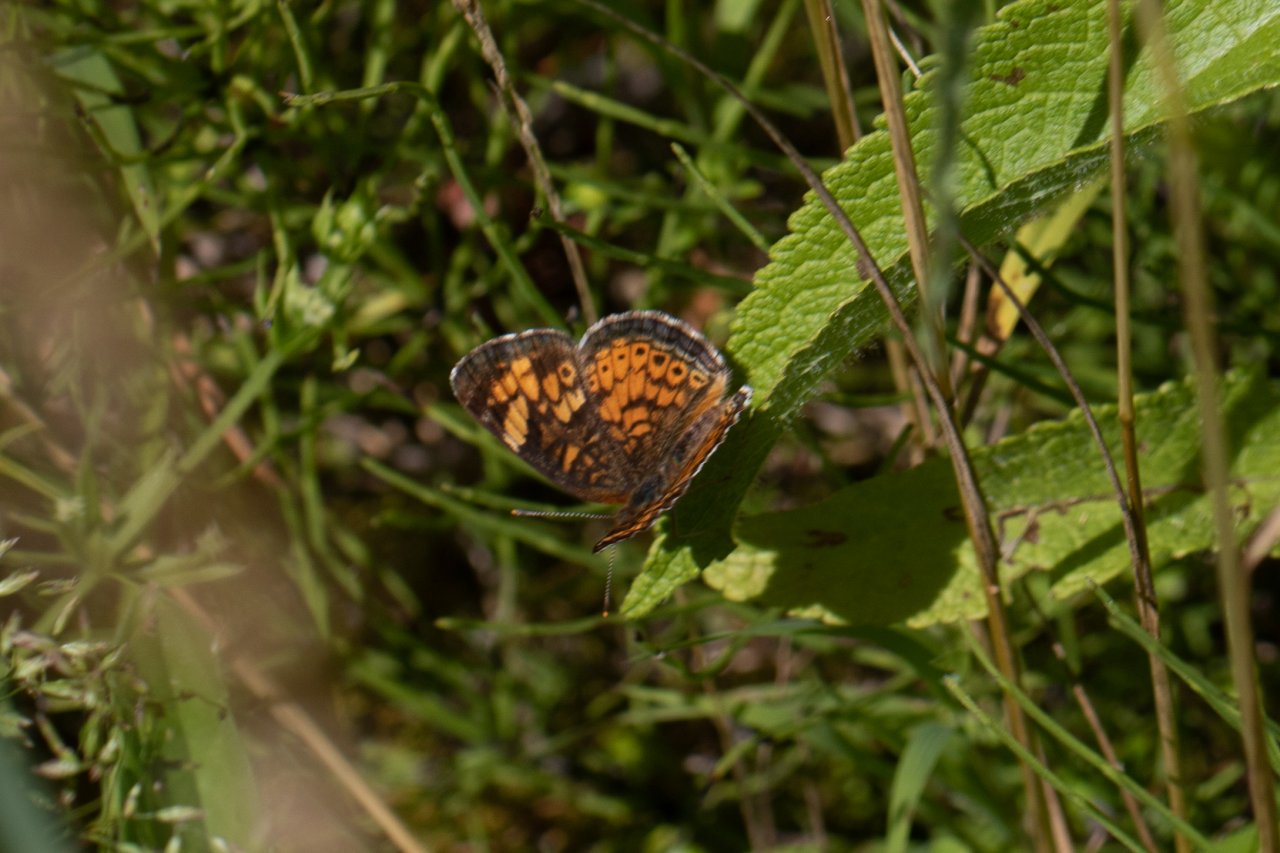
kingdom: Animalia
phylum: Arthropoda
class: Insecta
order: Lepidoptera
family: Nymphalidae
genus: Phyciodes
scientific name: Phyciodes
